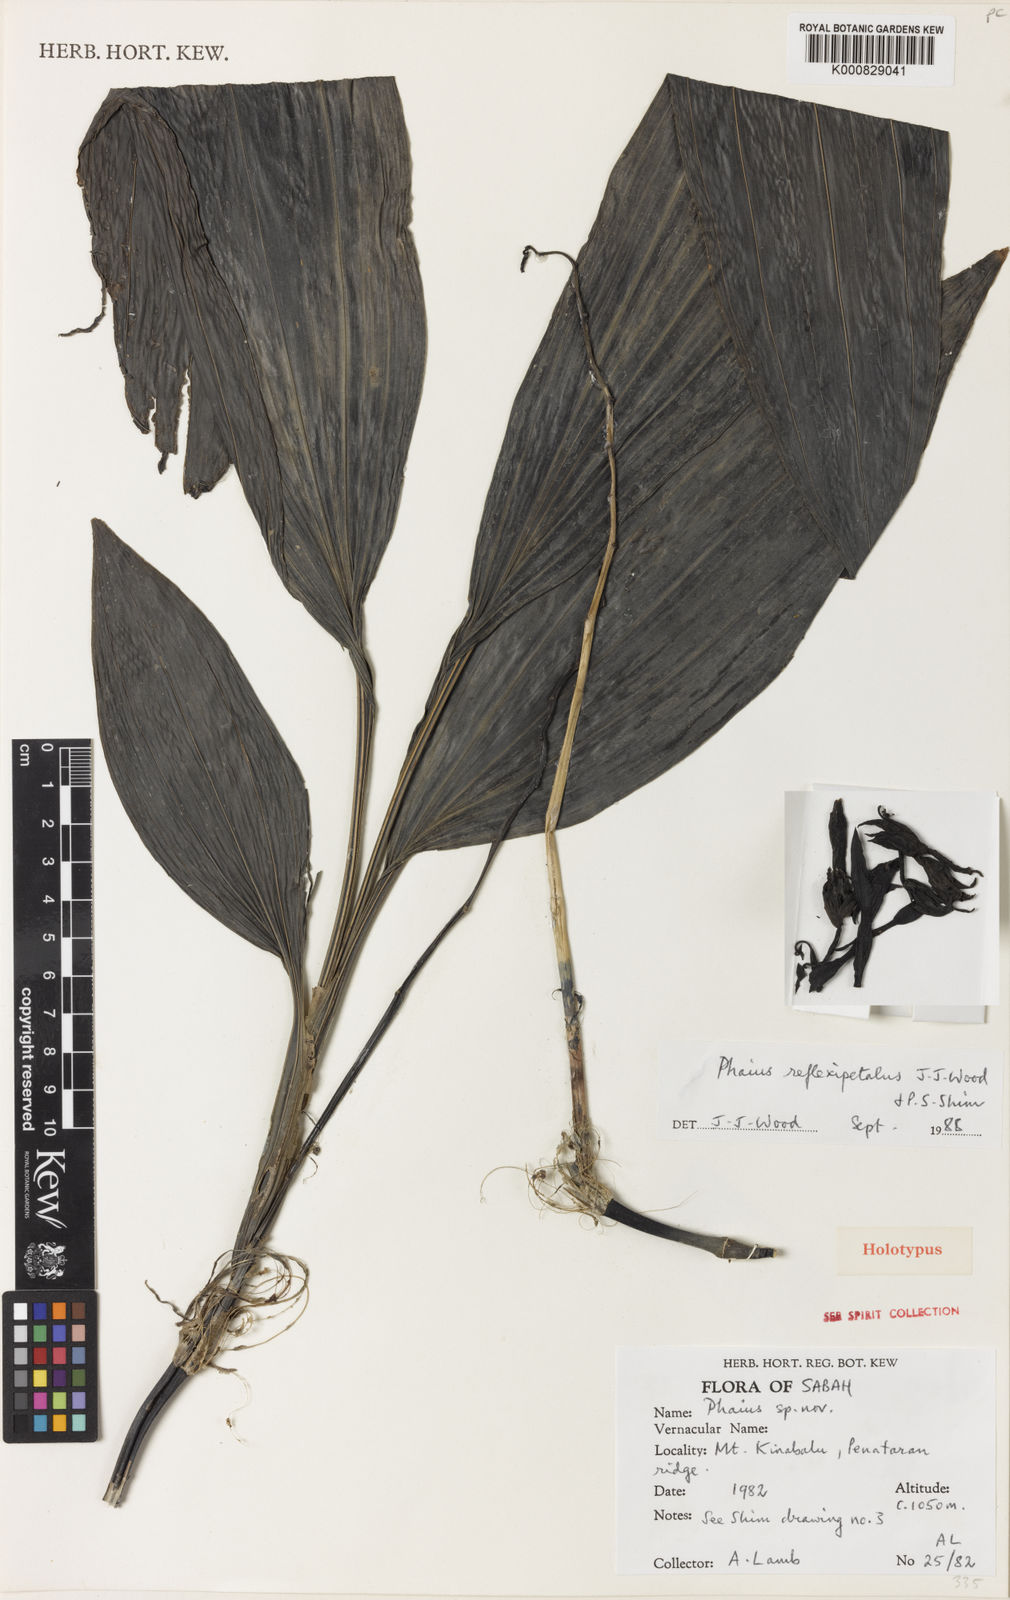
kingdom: Plantae
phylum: Tracheophyta
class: Liliopsida
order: Asparagales
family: Orchidaceae
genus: Calanthe
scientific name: Calanthe reflexipetala
